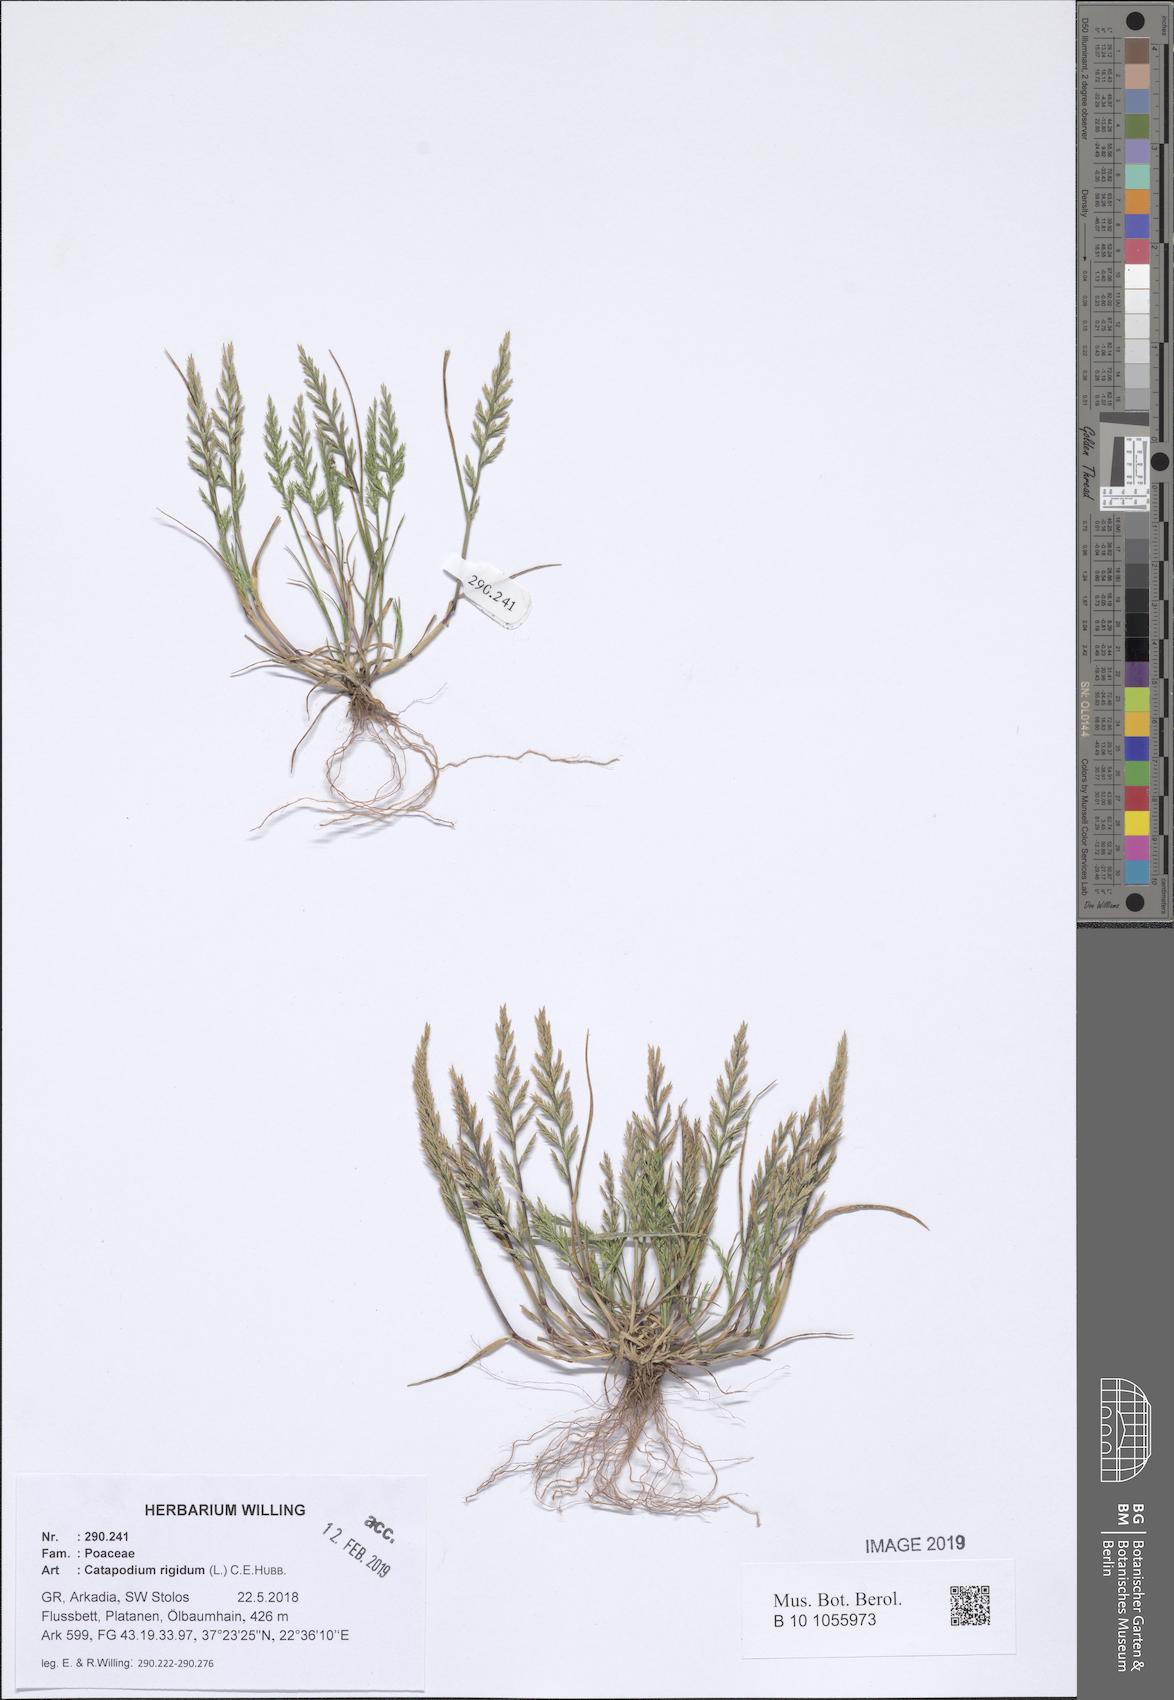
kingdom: Plantae
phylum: Tracheophyta
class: Liliopsida
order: Poales
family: Poaceae
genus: Catapodium
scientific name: Catapodium rigidum
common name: Fern-grass
